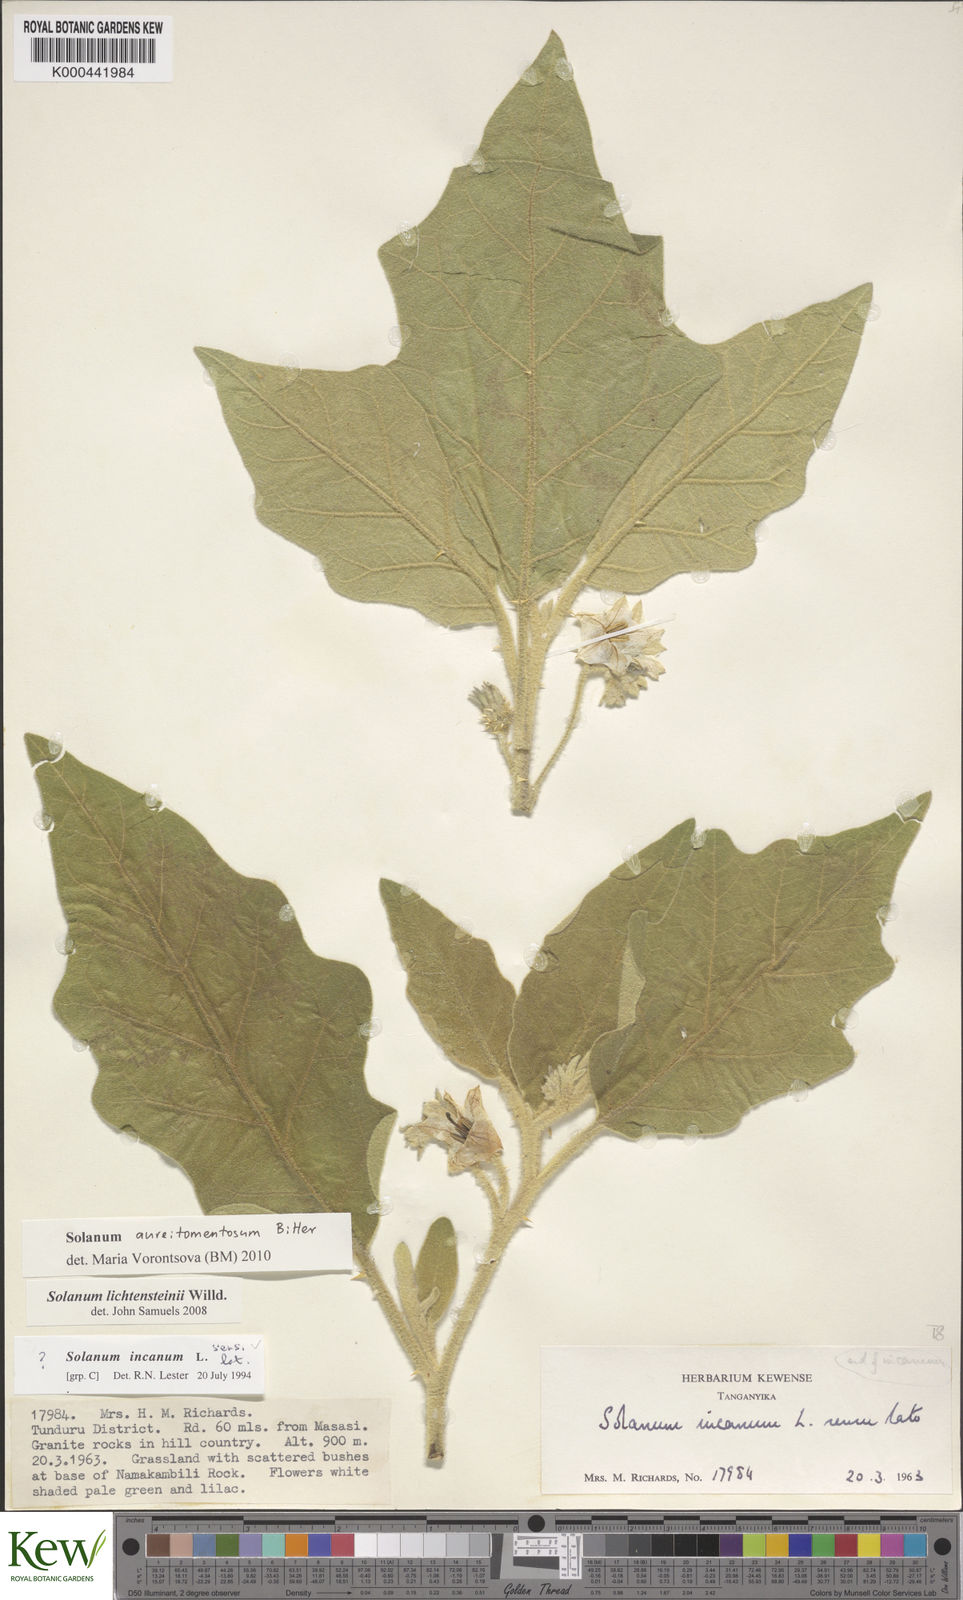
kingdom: Plantae
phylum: Tracheophyta
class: Magnoliopsida
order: Solanales
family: Solanaceae
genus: Solanum
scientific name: Solanum aureitomentosum
